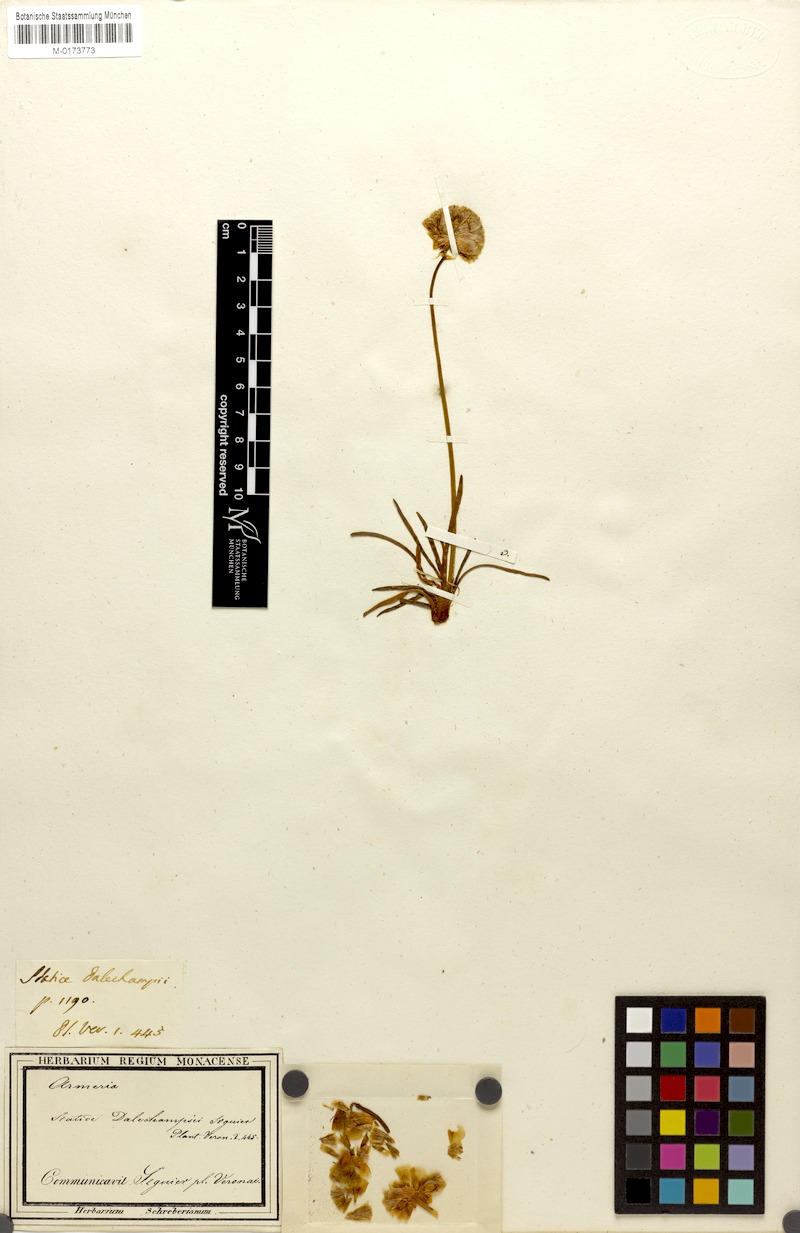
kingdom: Plantae
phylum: Tracheophyta
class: Magnoliopsida
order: Caryophyllales
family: Plumbaginaceae
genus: Armeria
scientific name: Armeria alpina
